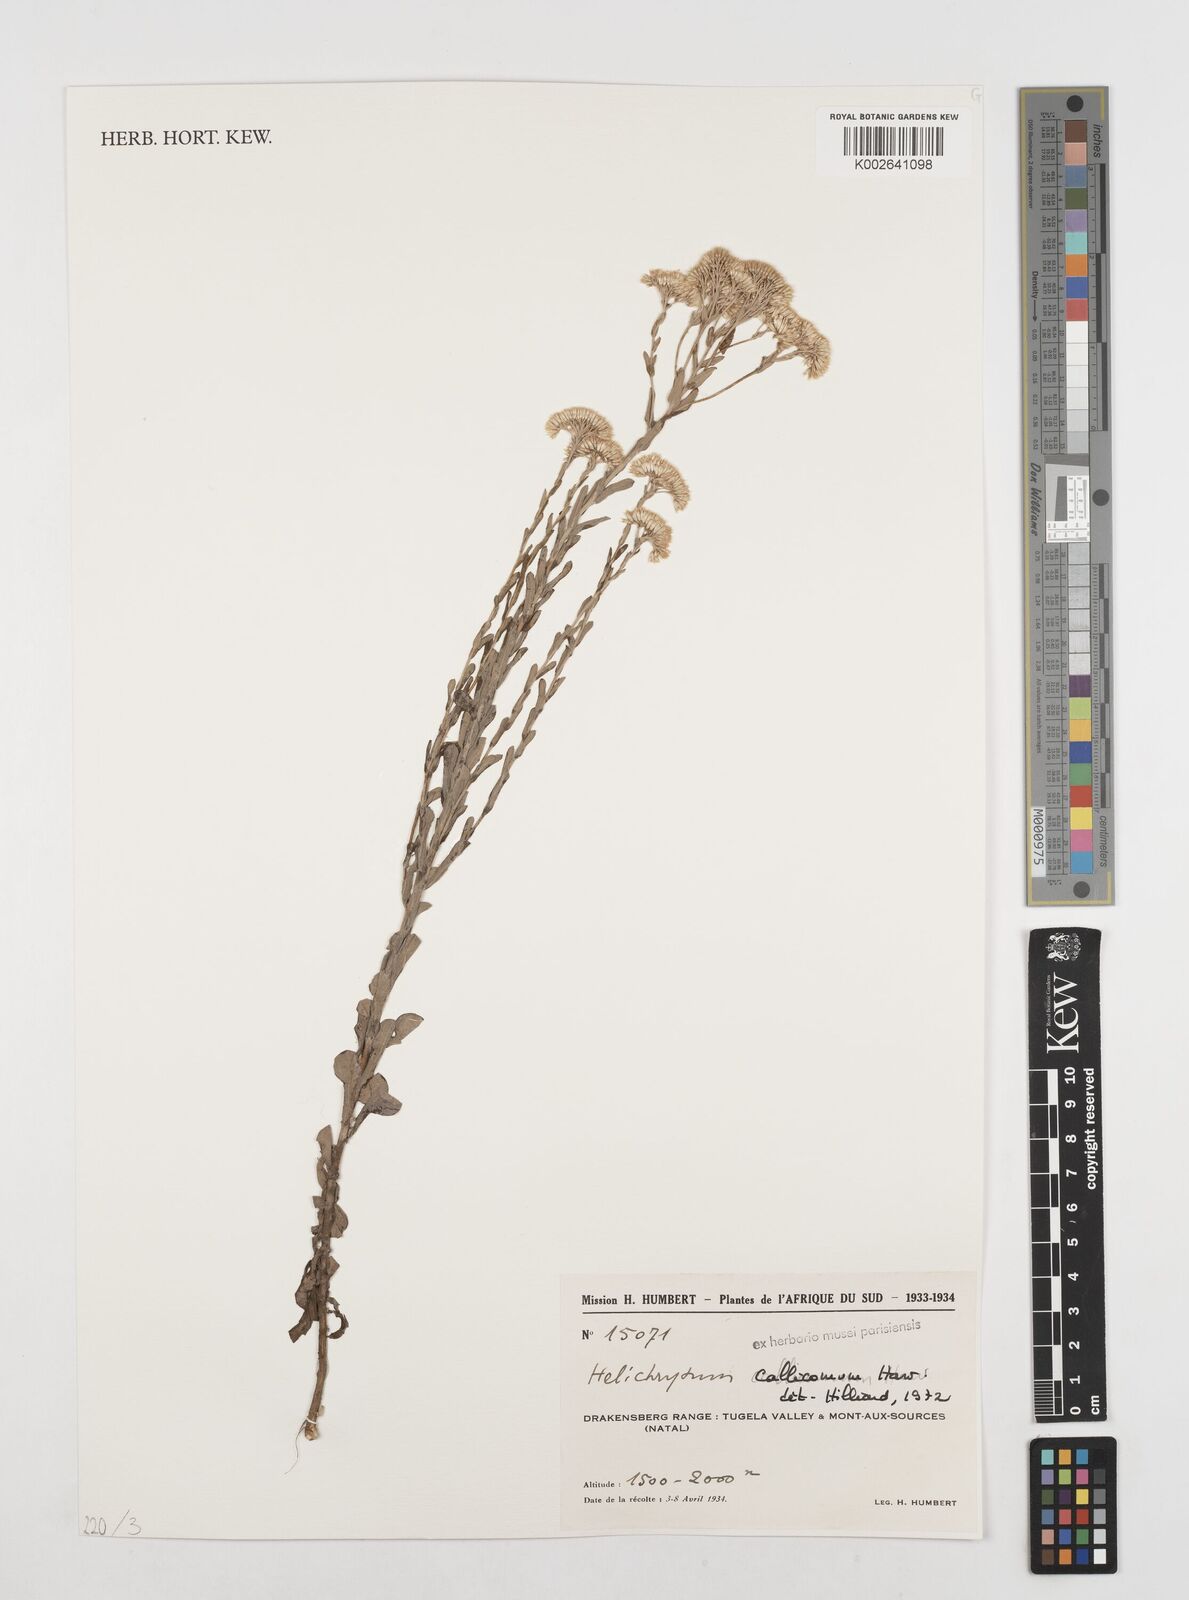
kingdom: Plantae
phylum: Tracheophyta
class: Magnoliopsida
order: Asterales
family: Asteraceae
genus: Helichrysum
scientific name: Helichrysum callicomum
